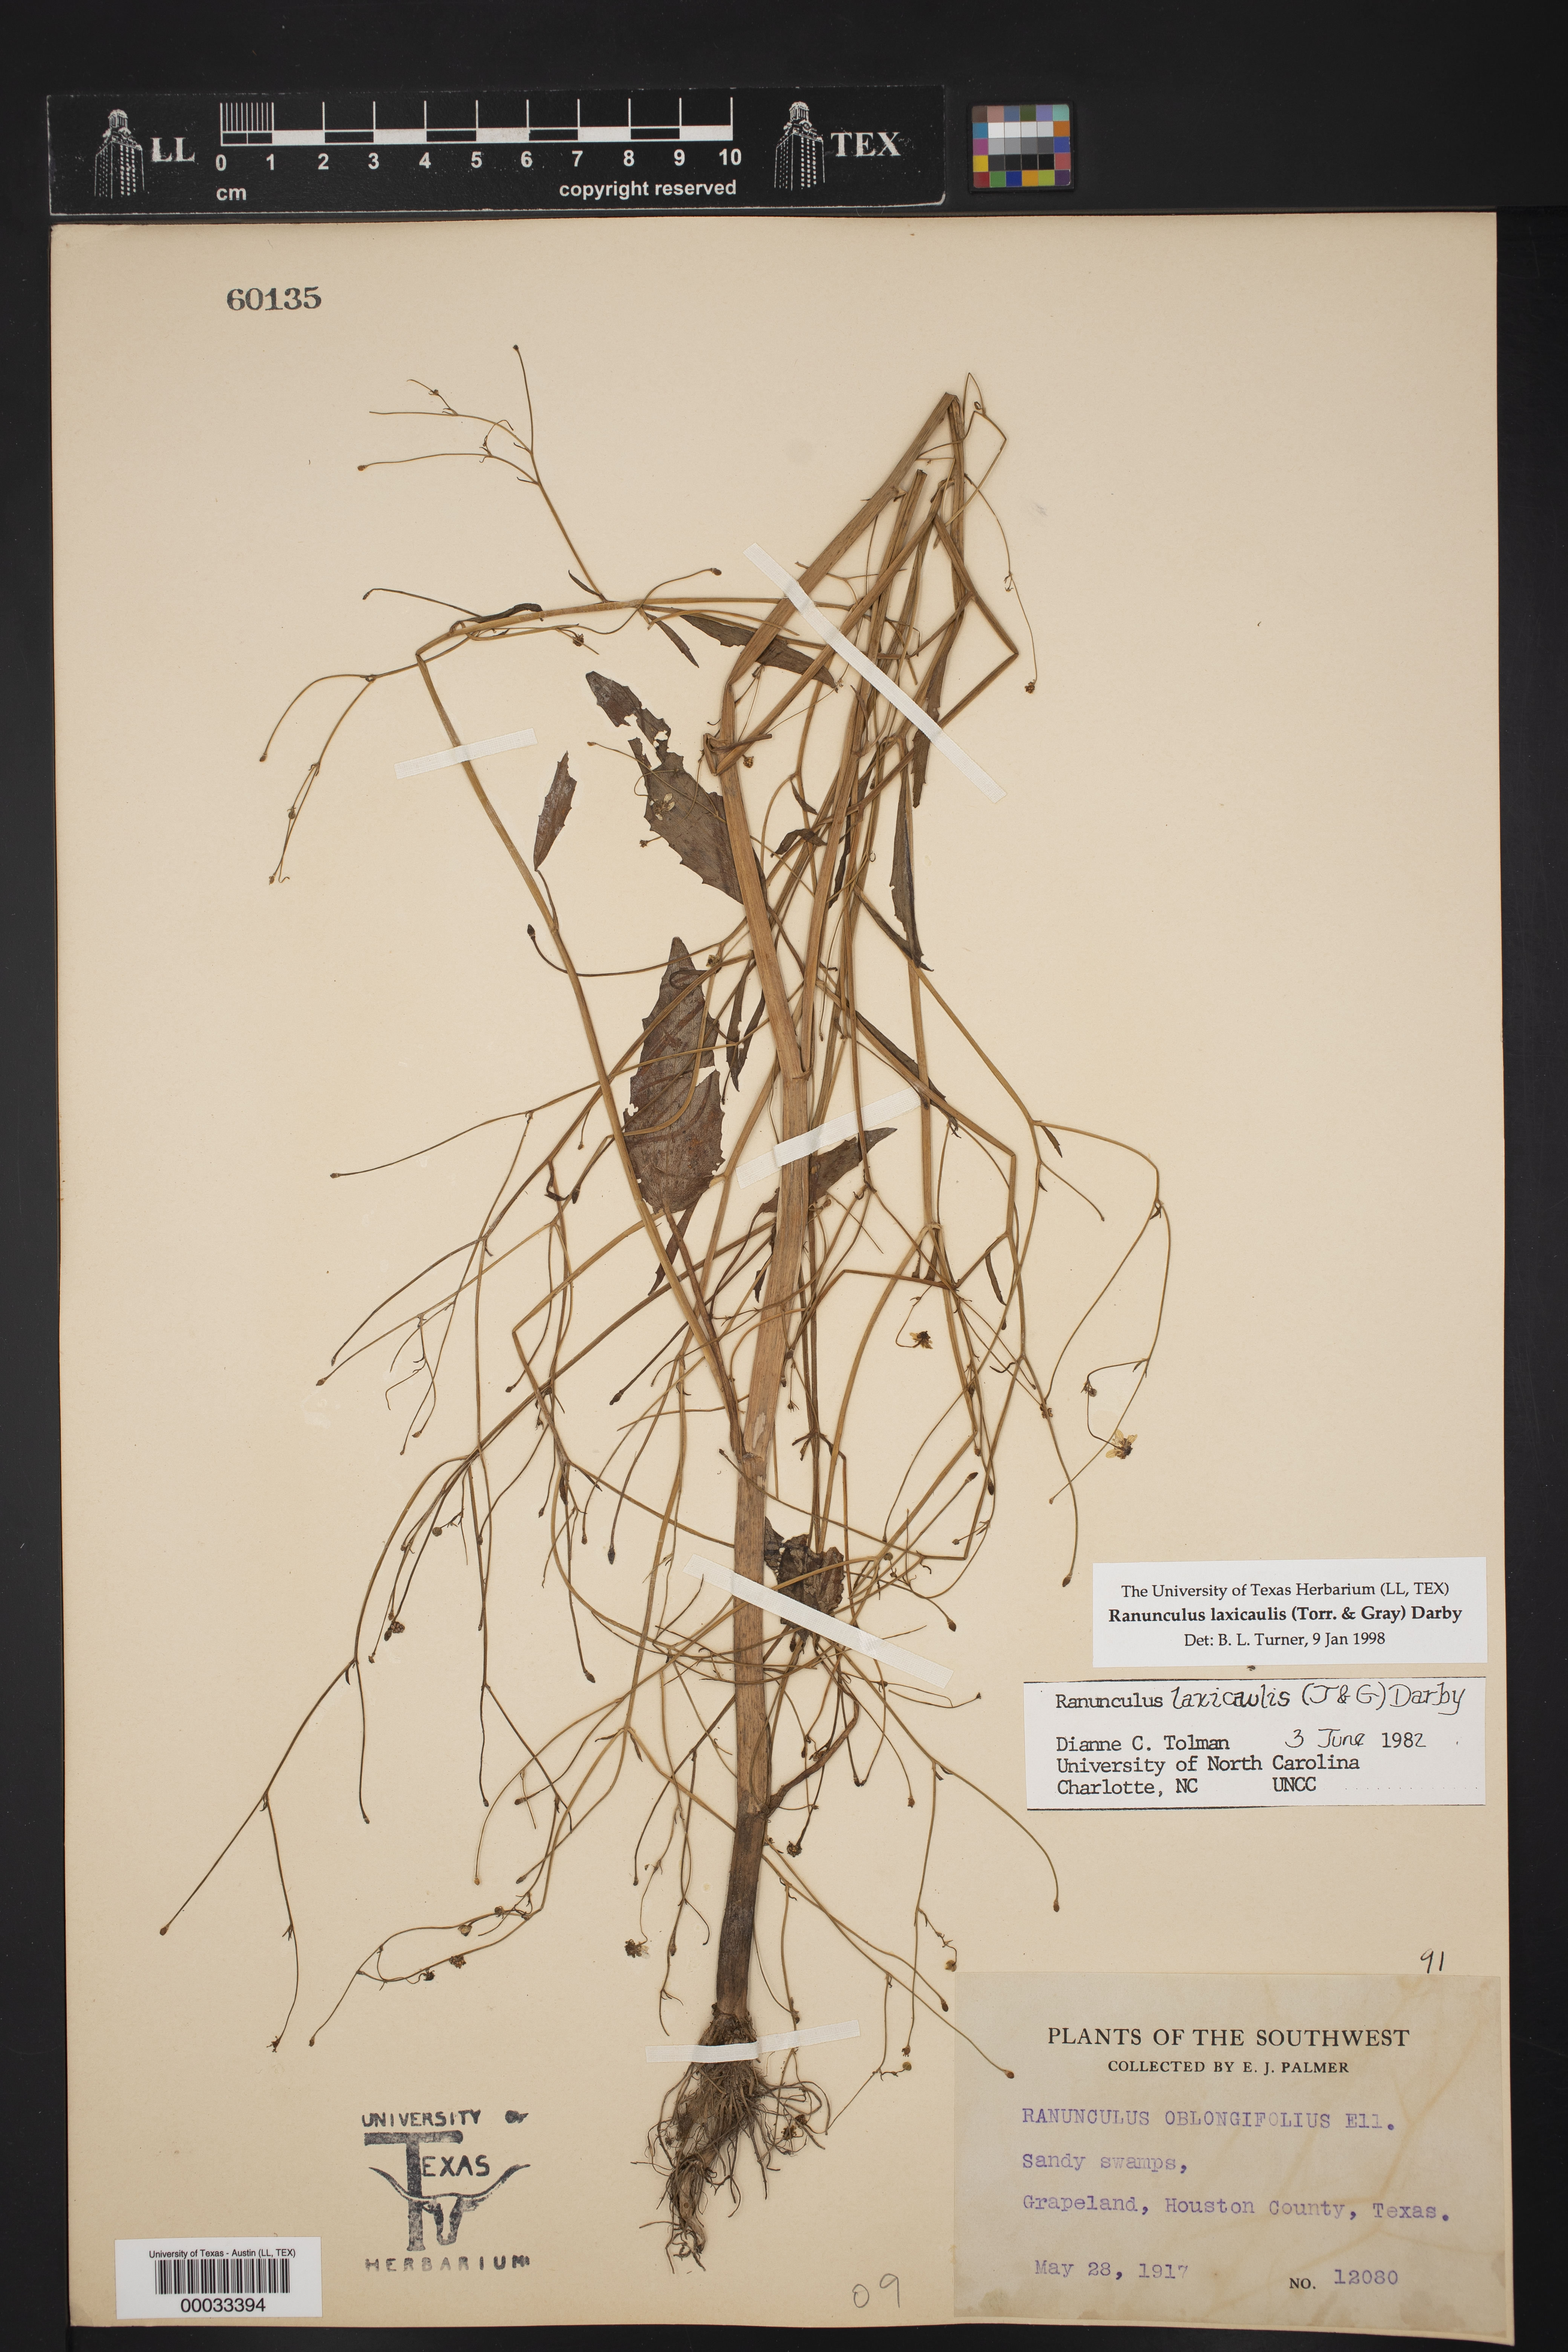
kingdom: Plantae
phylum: Tracheophyta
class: Magnoliopsida
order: Ranunculales
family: Ranunculaceae
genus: Ranunculus
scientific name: Ranunculus laxicaulis
